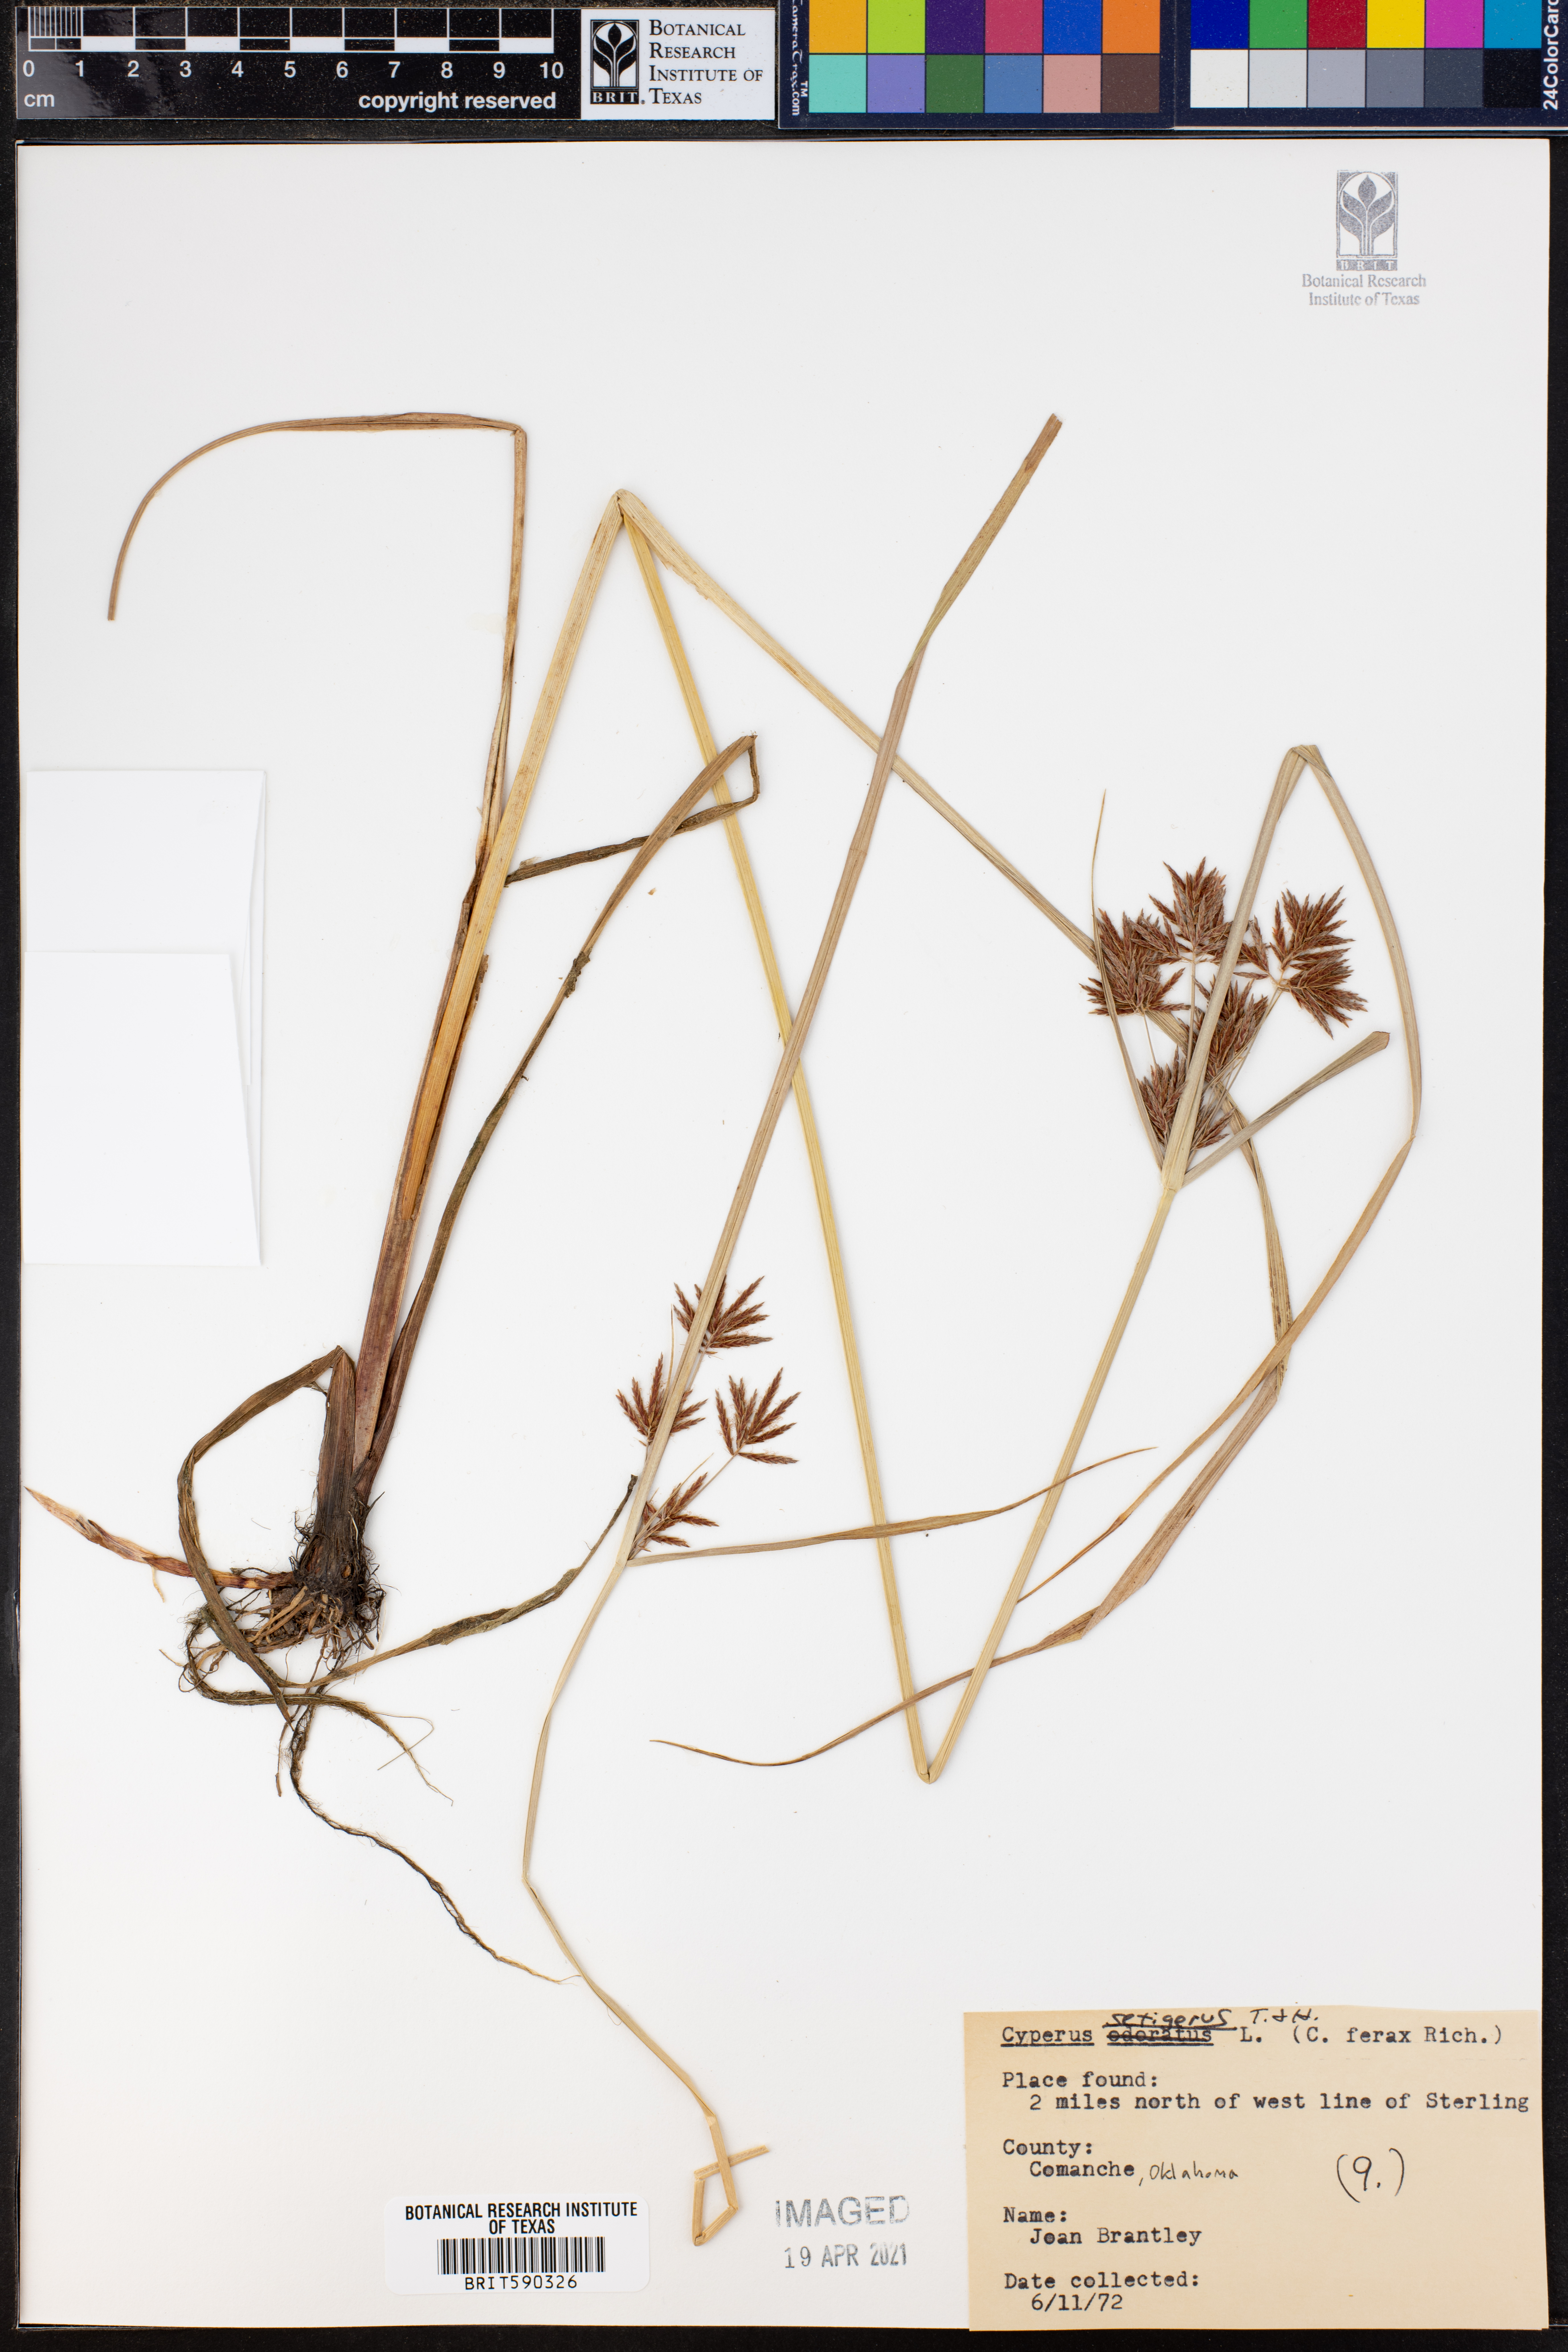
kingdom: Plantae
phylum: Tracheophyta
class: Liliopsida
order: Poales
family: Cyperaceae
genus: Cyperus
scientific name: Cyperus setigerus
